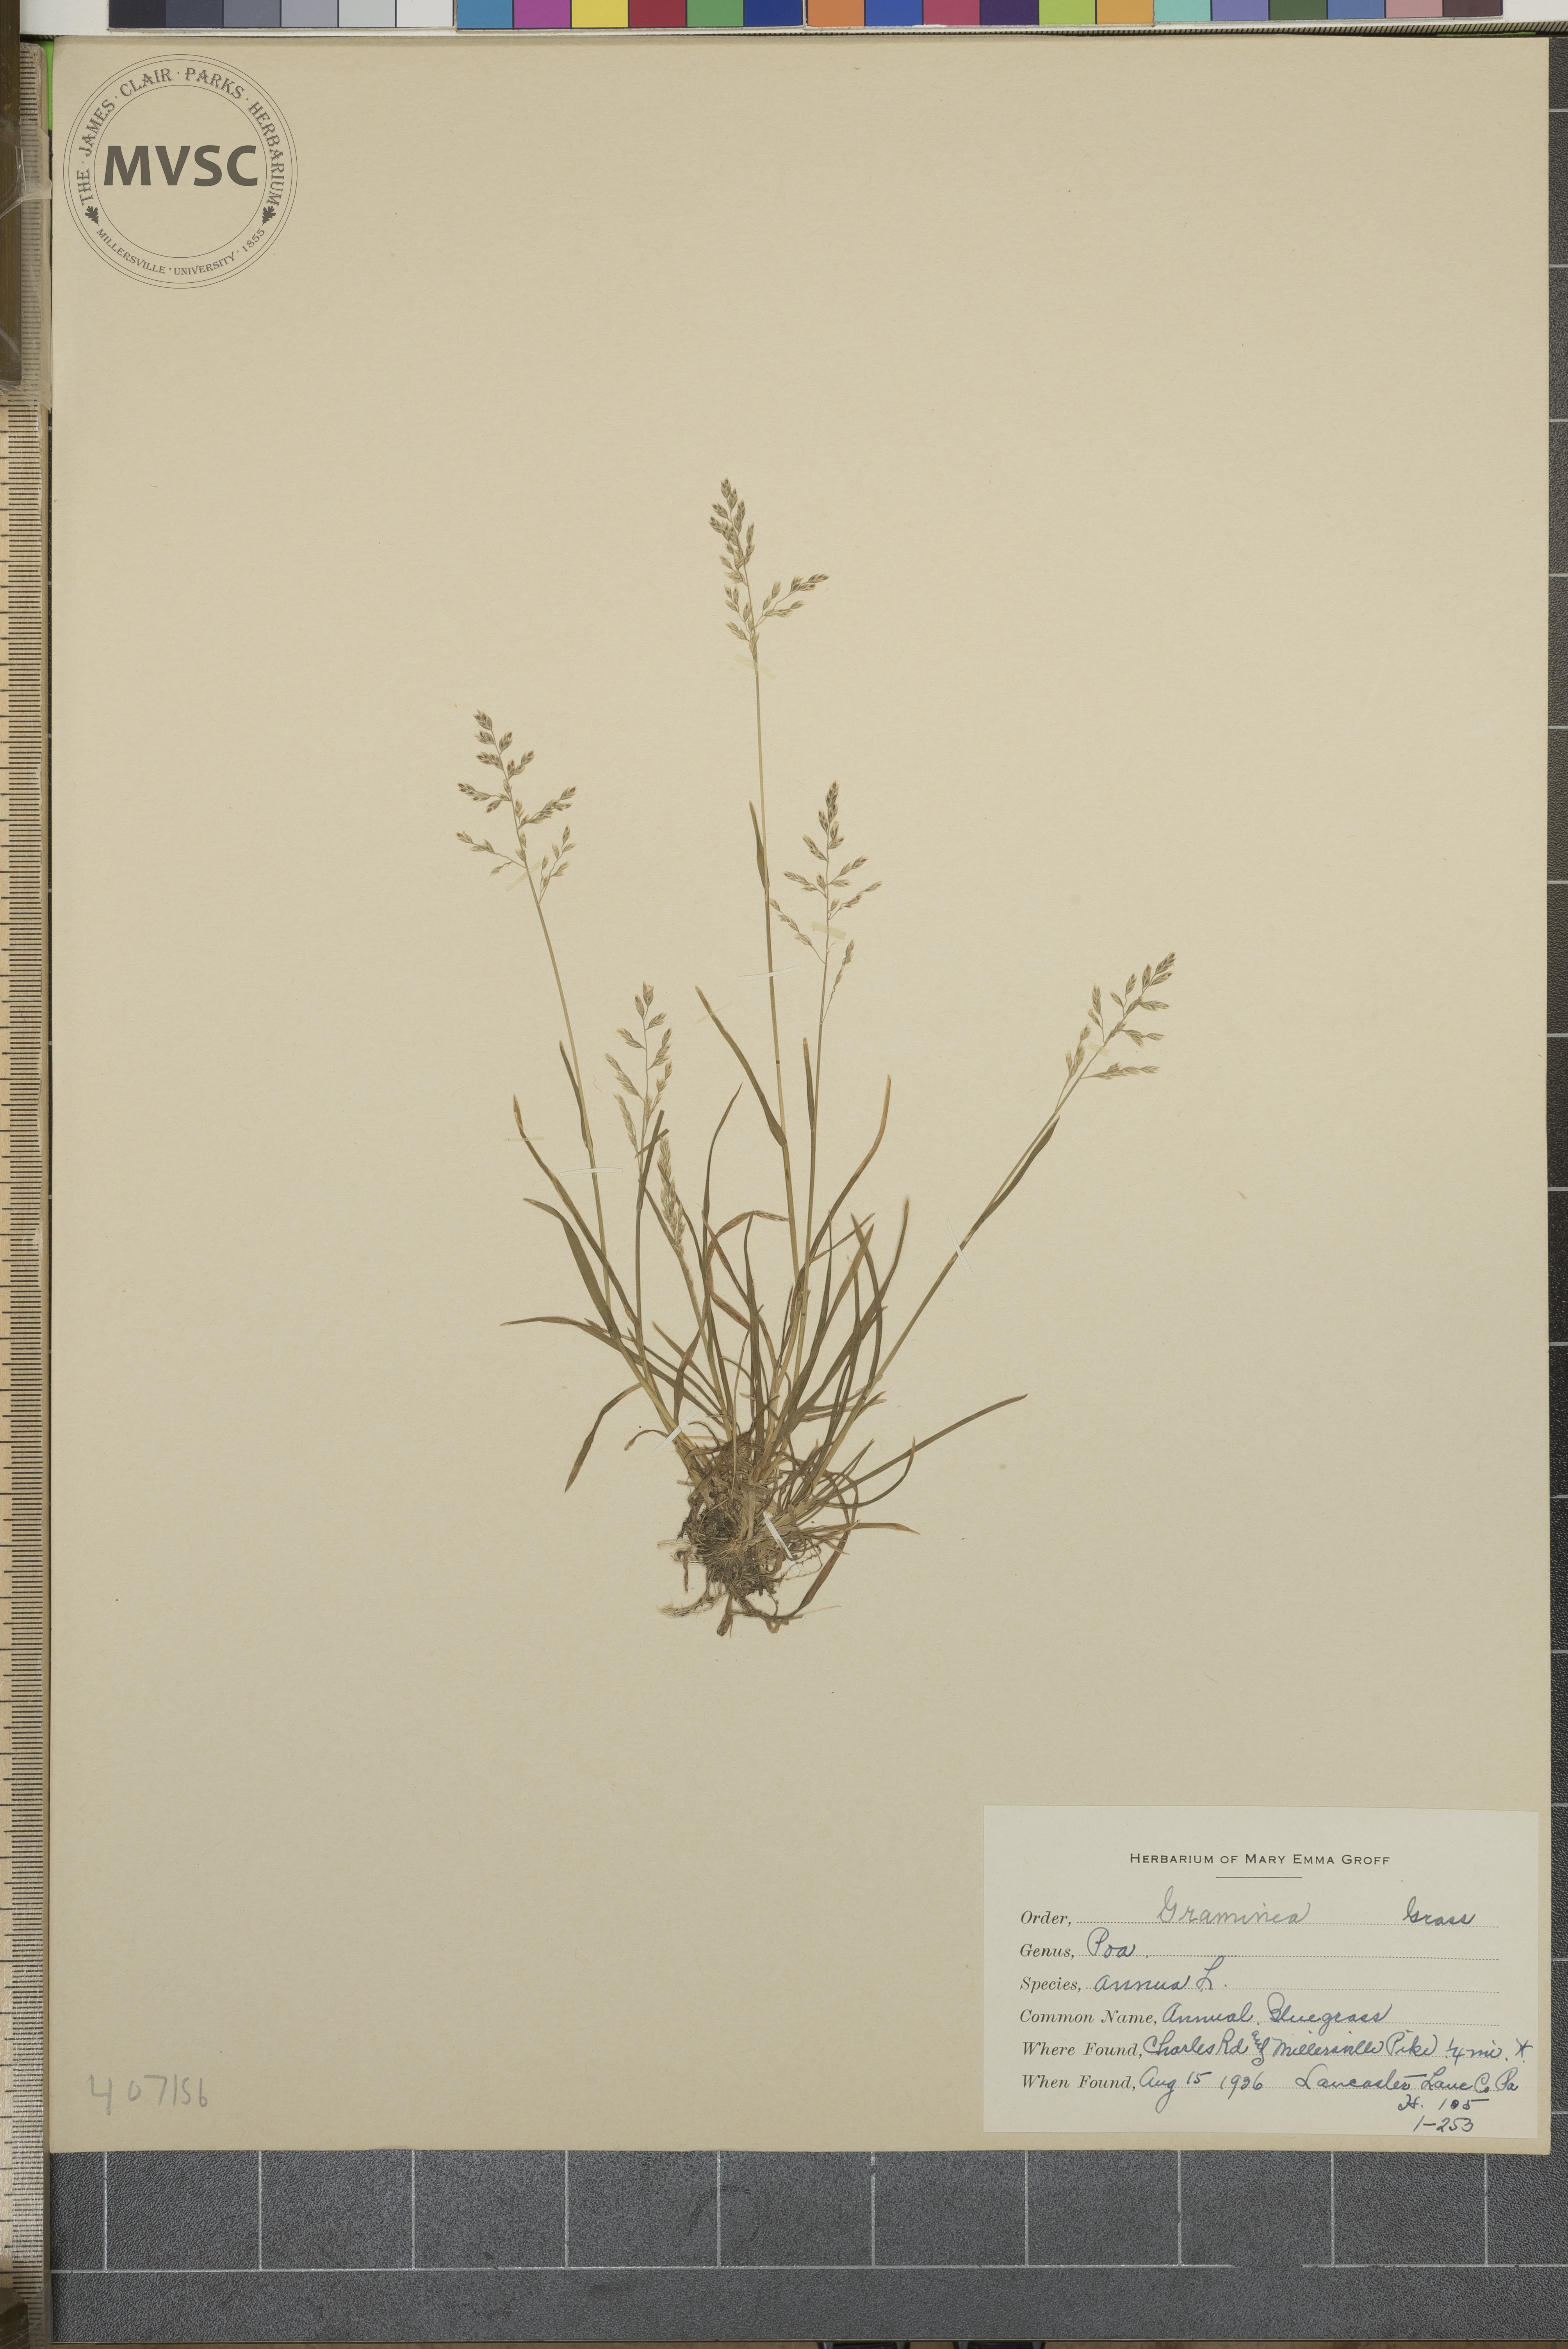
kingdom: Plantae
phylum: Tracheophyta
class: Liliopsida
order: Poales
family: Poaceae
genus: Poa
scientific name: Poa annua
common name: Annual bluegrass
